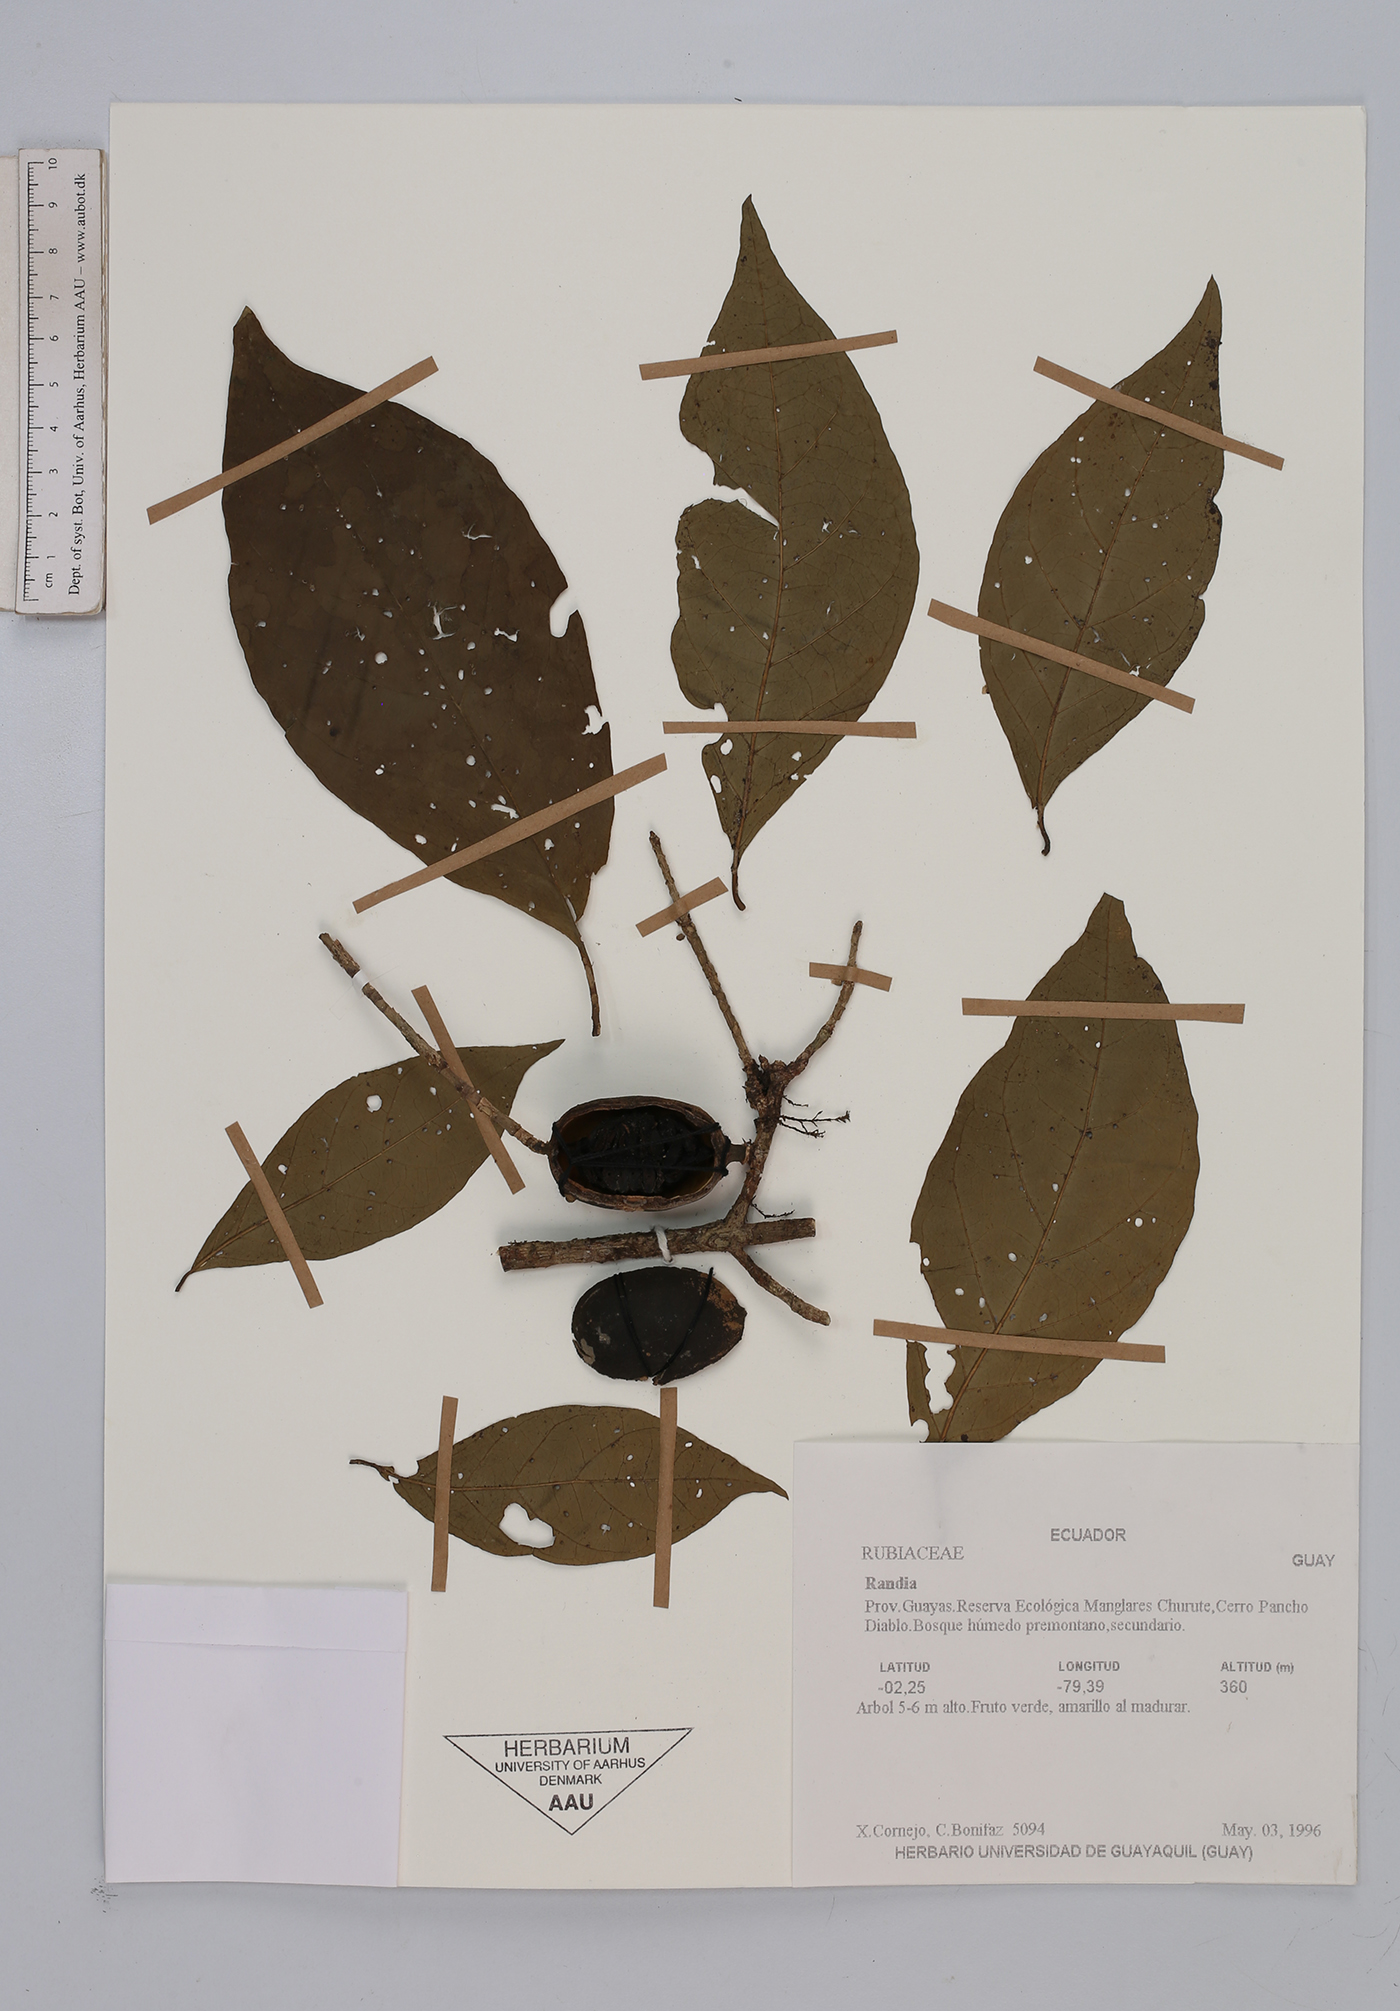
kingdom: Plantae
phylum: Tracheophyta
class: Magnoliopsida
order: Gentianales
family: Rubiaceae
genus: Randia
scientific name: Randia
